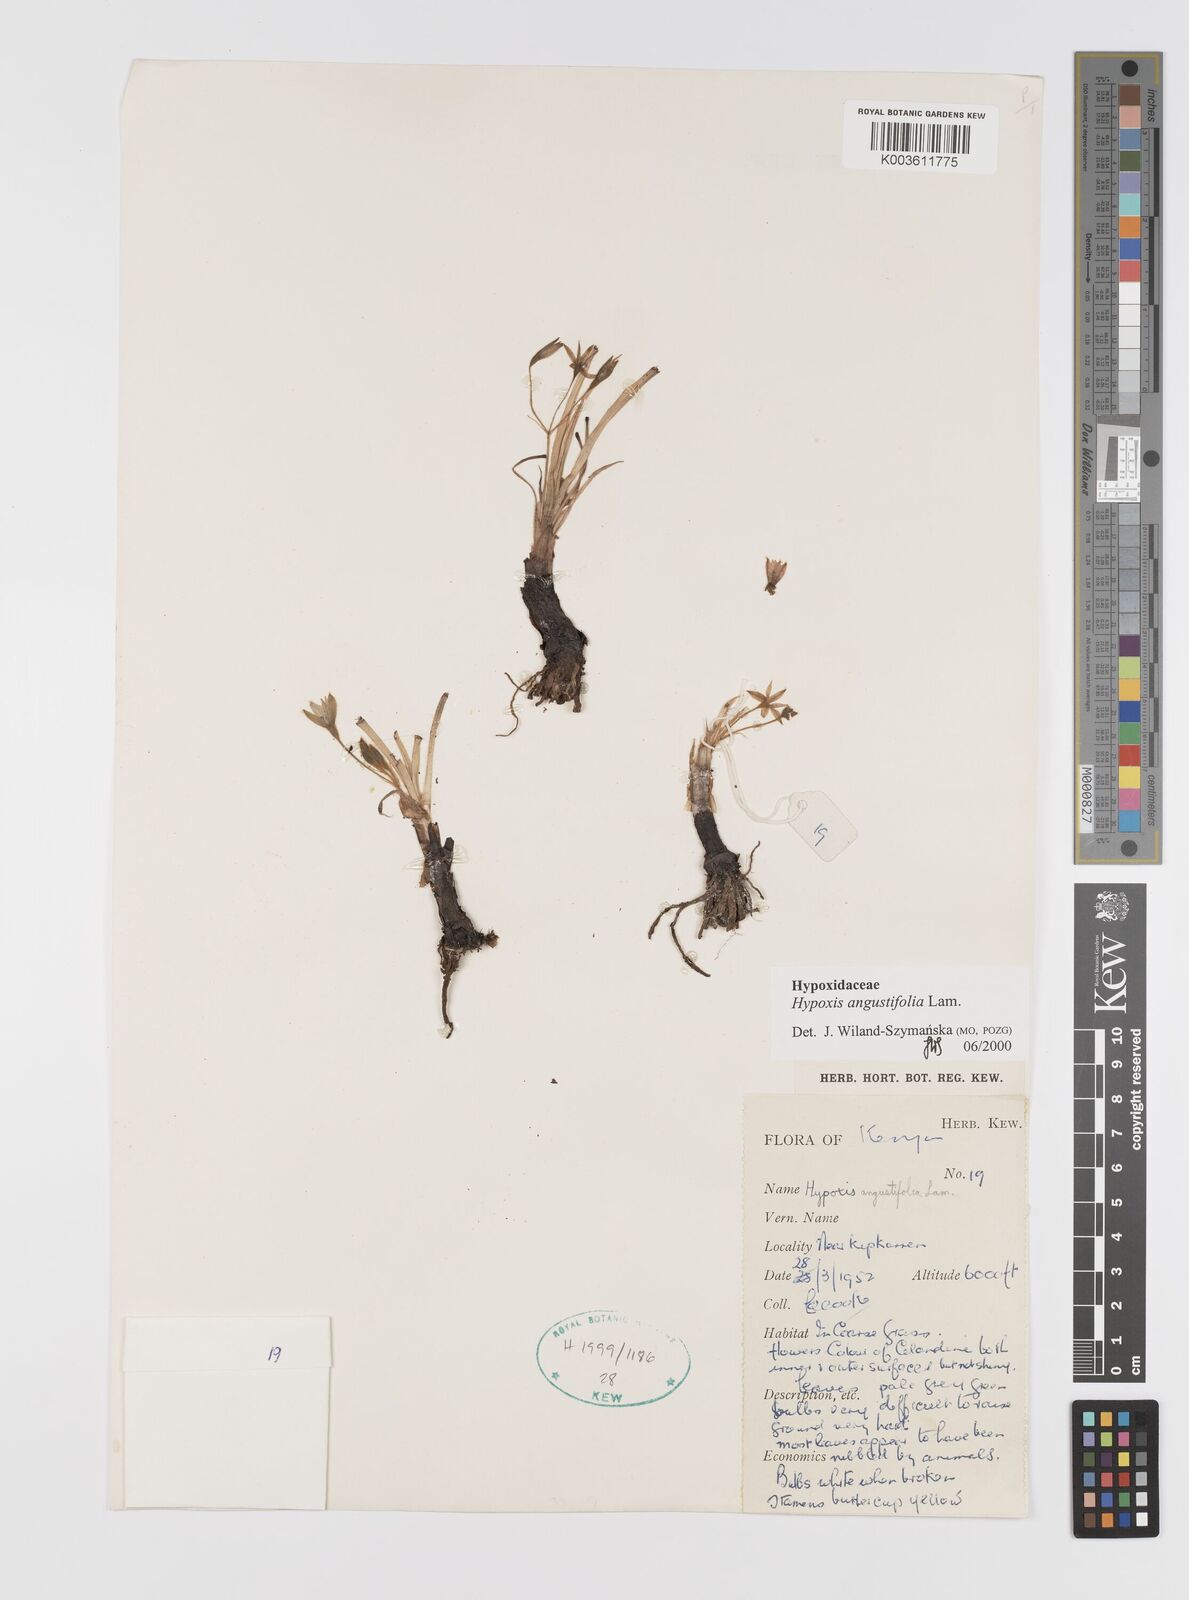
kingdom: Plantae
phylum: Tracheophyta
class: Liliopsida
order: Asparagales
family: Hypoxidaceae
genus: Hypoxis
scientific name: Hypoxis angustifolia
